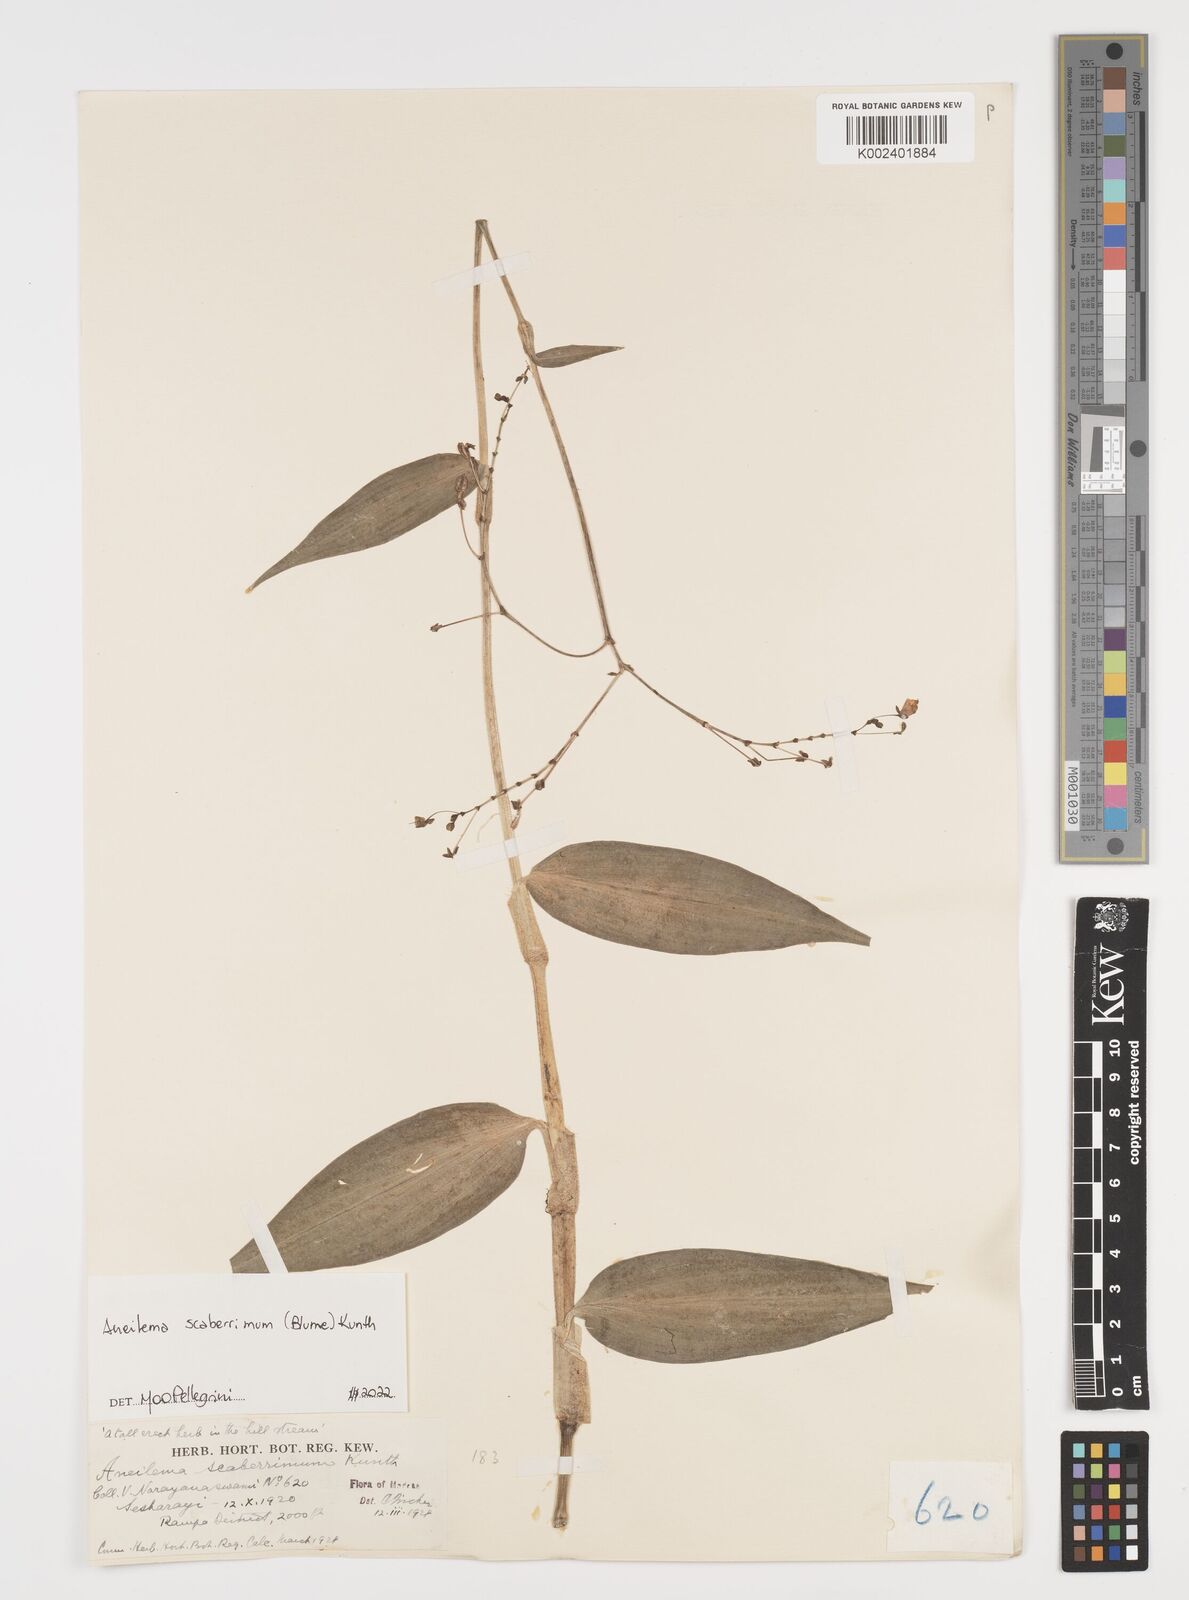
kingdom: Plantae
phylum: Tracheophyta
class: Liliopsida
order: Commelinales
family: Commelinaceae
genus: Rhopalephora
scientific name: Rhopalephora scaberrima
